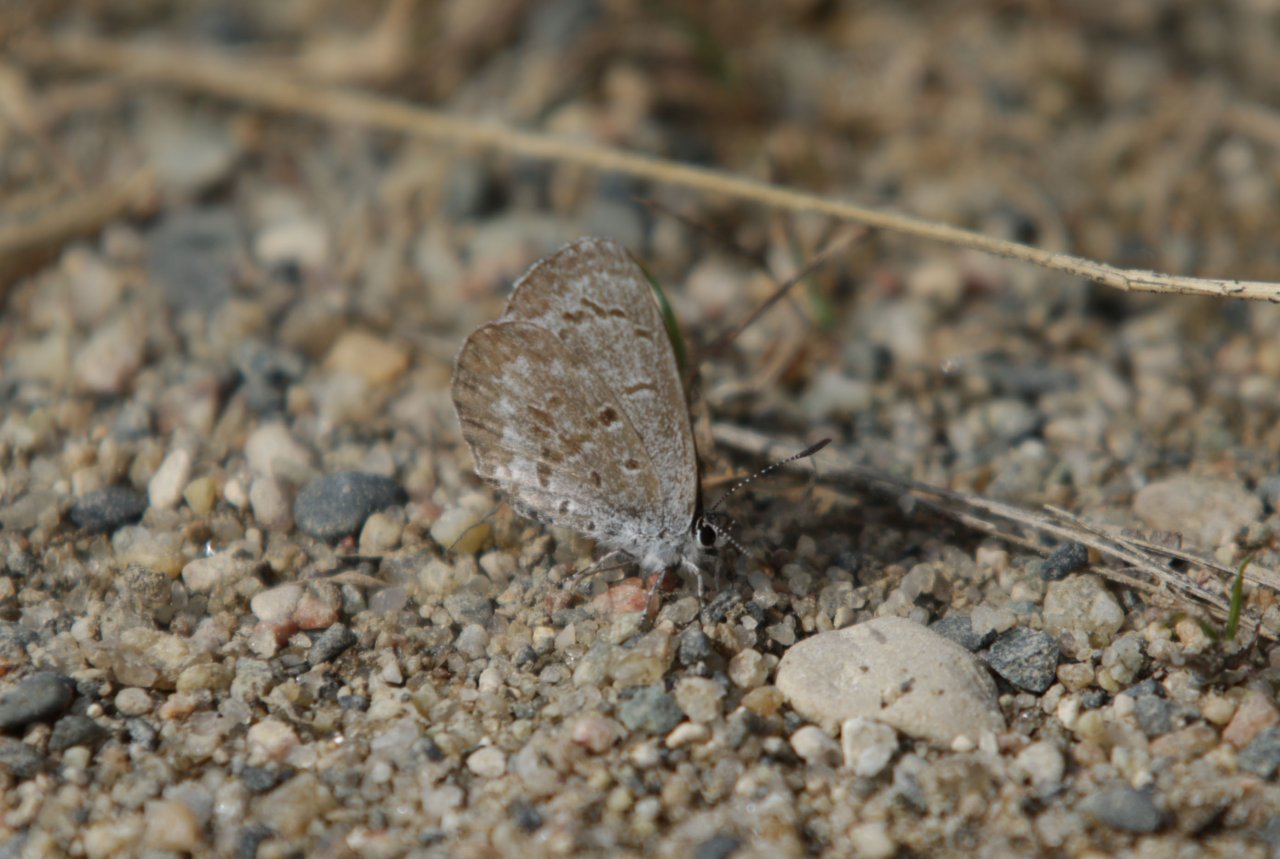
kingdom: Animalia
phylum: Arthropoda
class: Insecta
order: Lepidoptera
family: Lycaenidae
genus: Celastrina
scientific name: Celastrina lucia
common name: Northern Spring Azure
